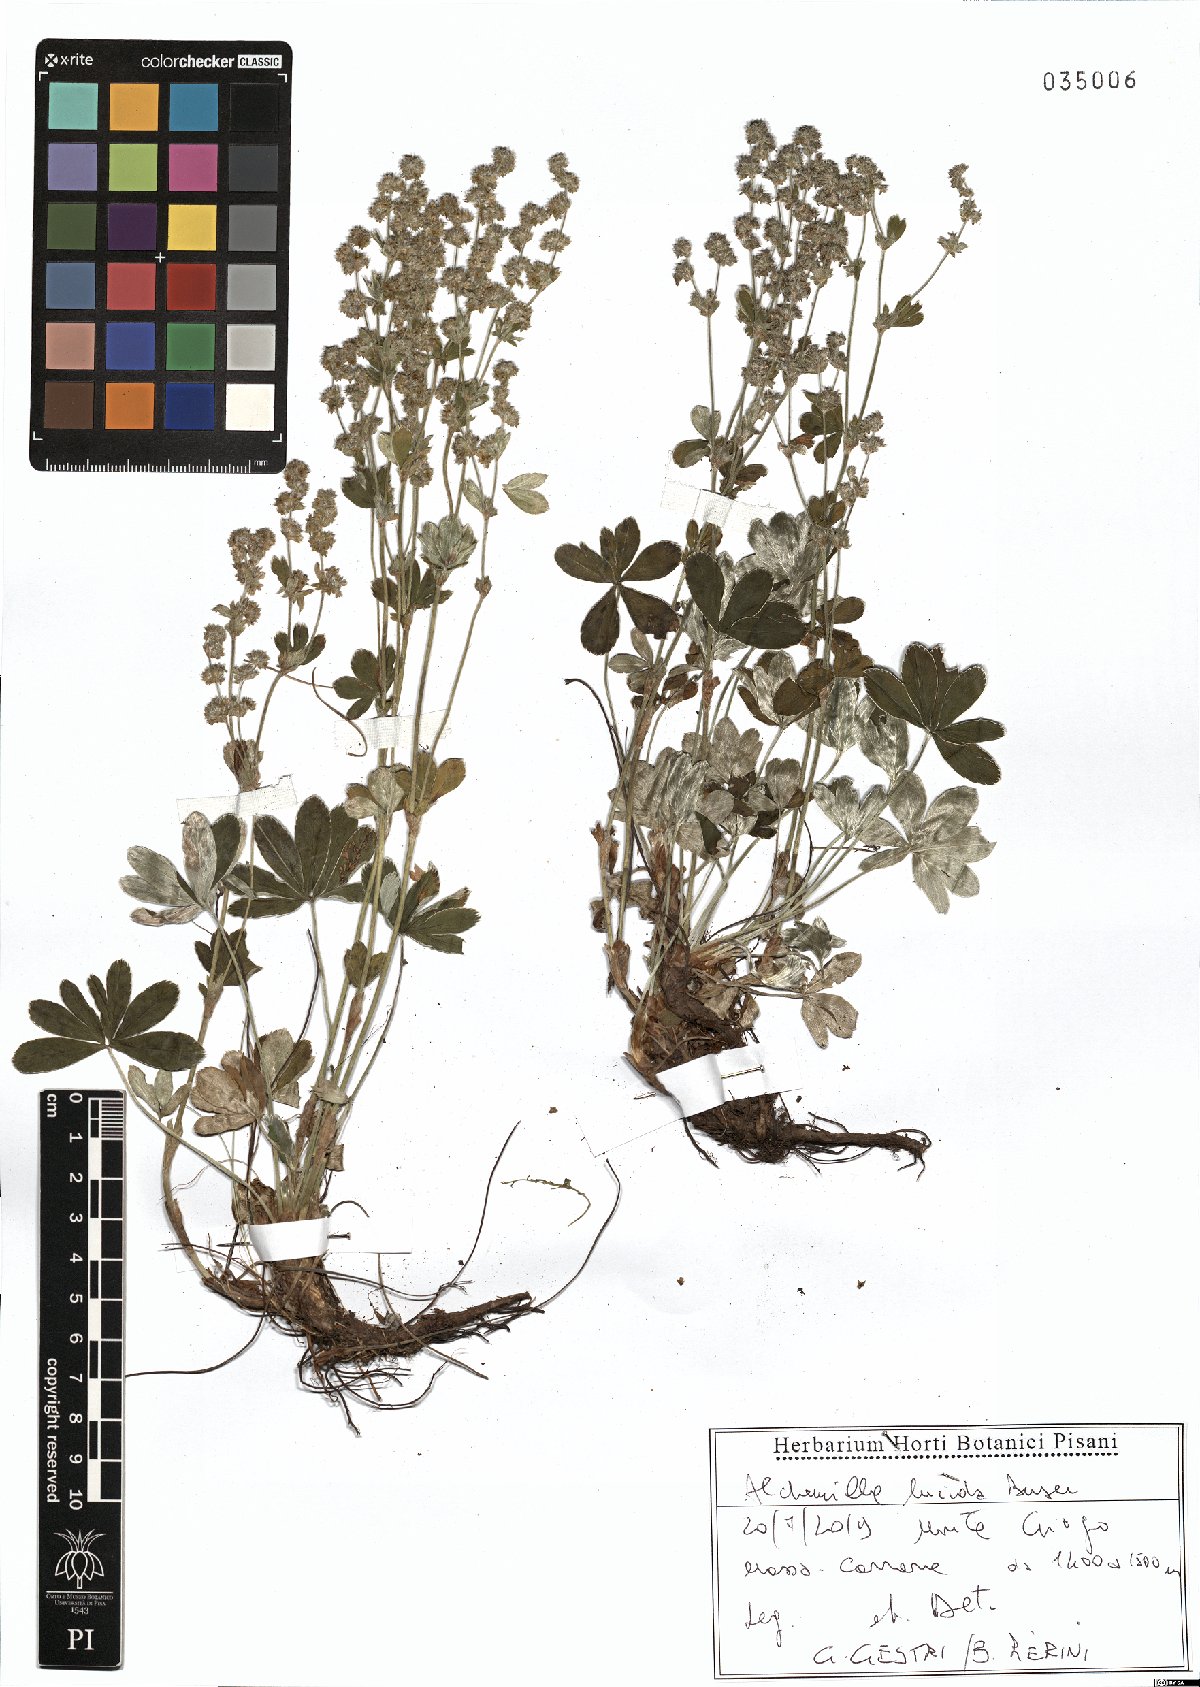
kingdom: Plantae
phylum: Tracheophyta
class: Magnoliopsida
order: Rosales
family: Rosaceae
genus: Alchemilla
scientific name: Alchemilla lucida
